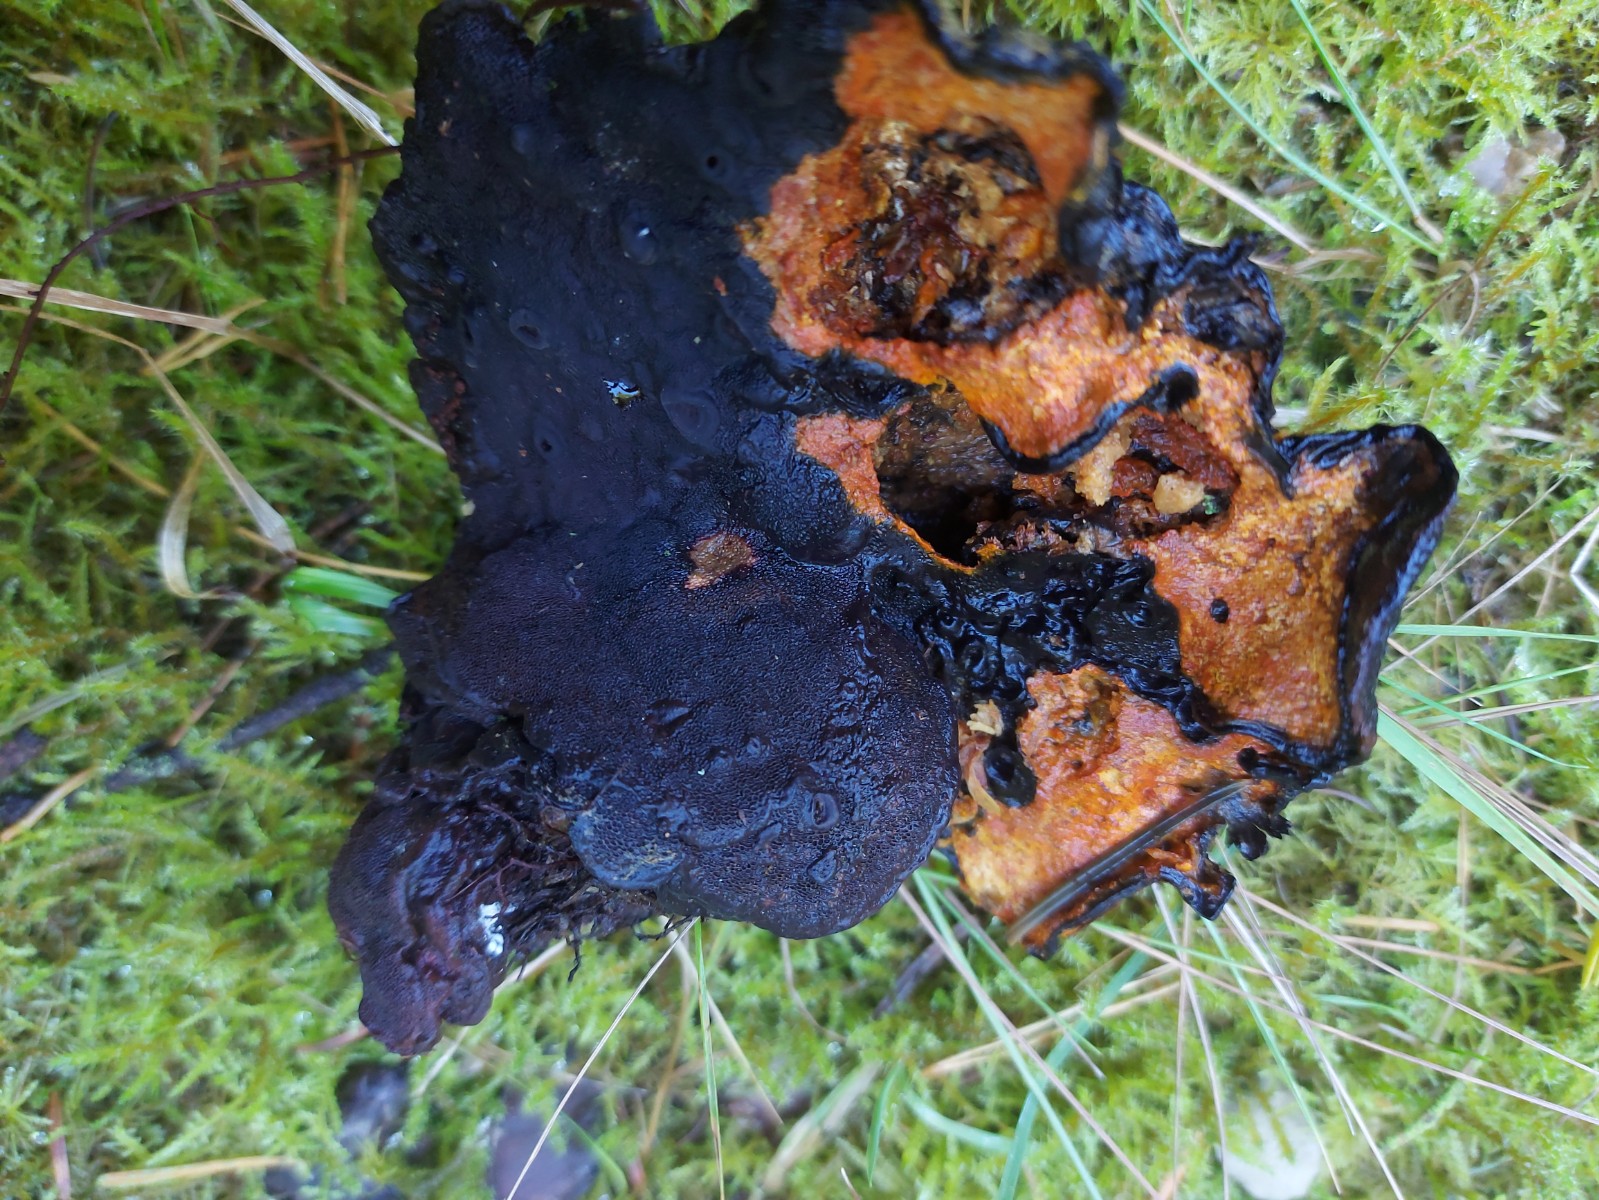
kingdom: Fungi
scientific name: Fungi
